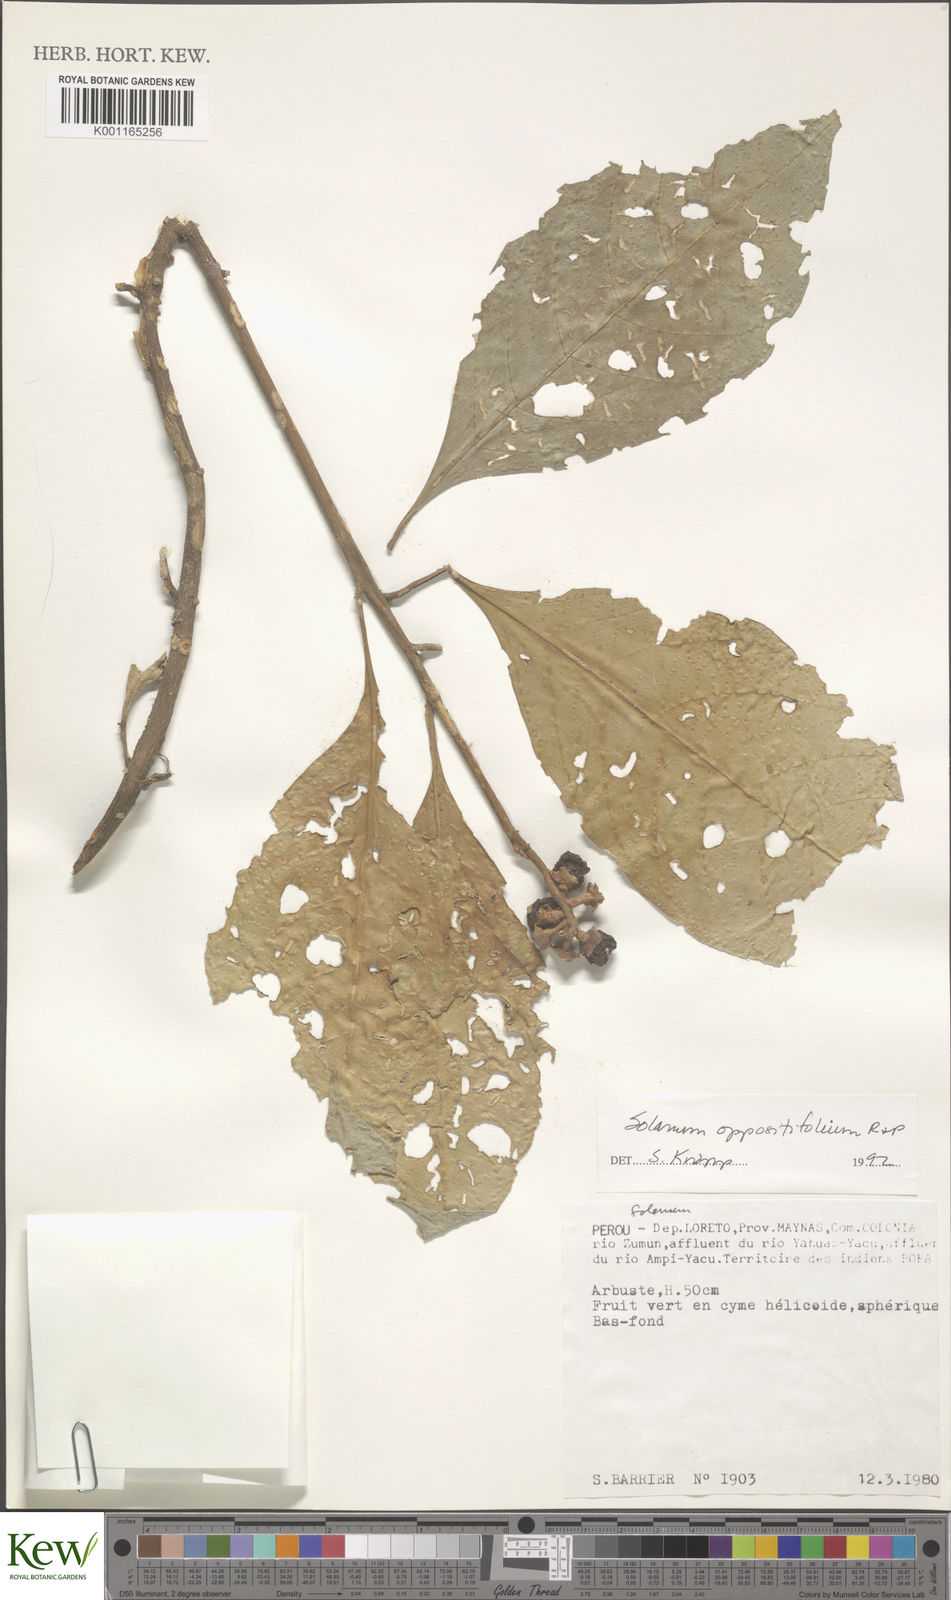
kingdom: Plantae
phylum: Tracheophyta
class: Magnoliopsida
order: Solanales
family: Solanaceae
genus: Solanum
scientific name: Solanum oppositifolium
